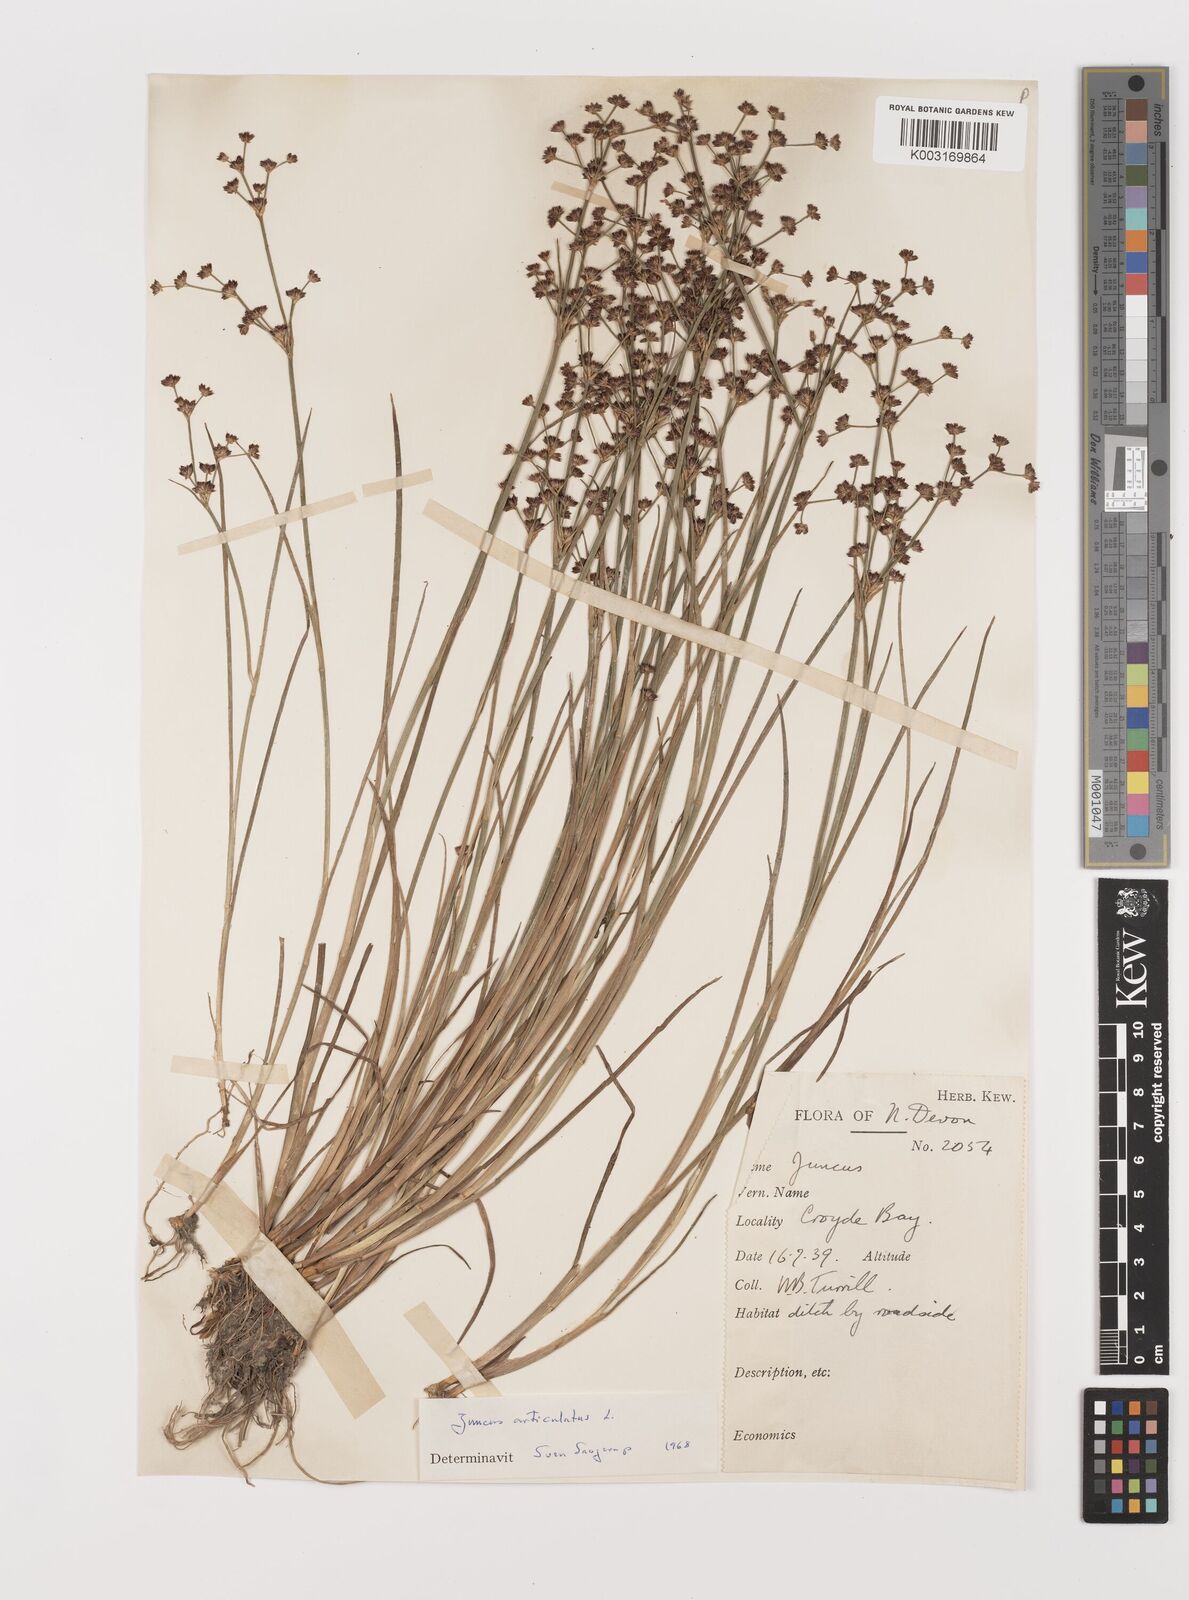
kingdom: Plantae
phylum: Tracheophyta
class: Liliopsida
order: Poales
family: Juncaceae
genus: Juncus
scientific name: Juncus articulatus
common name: Jointed rush
